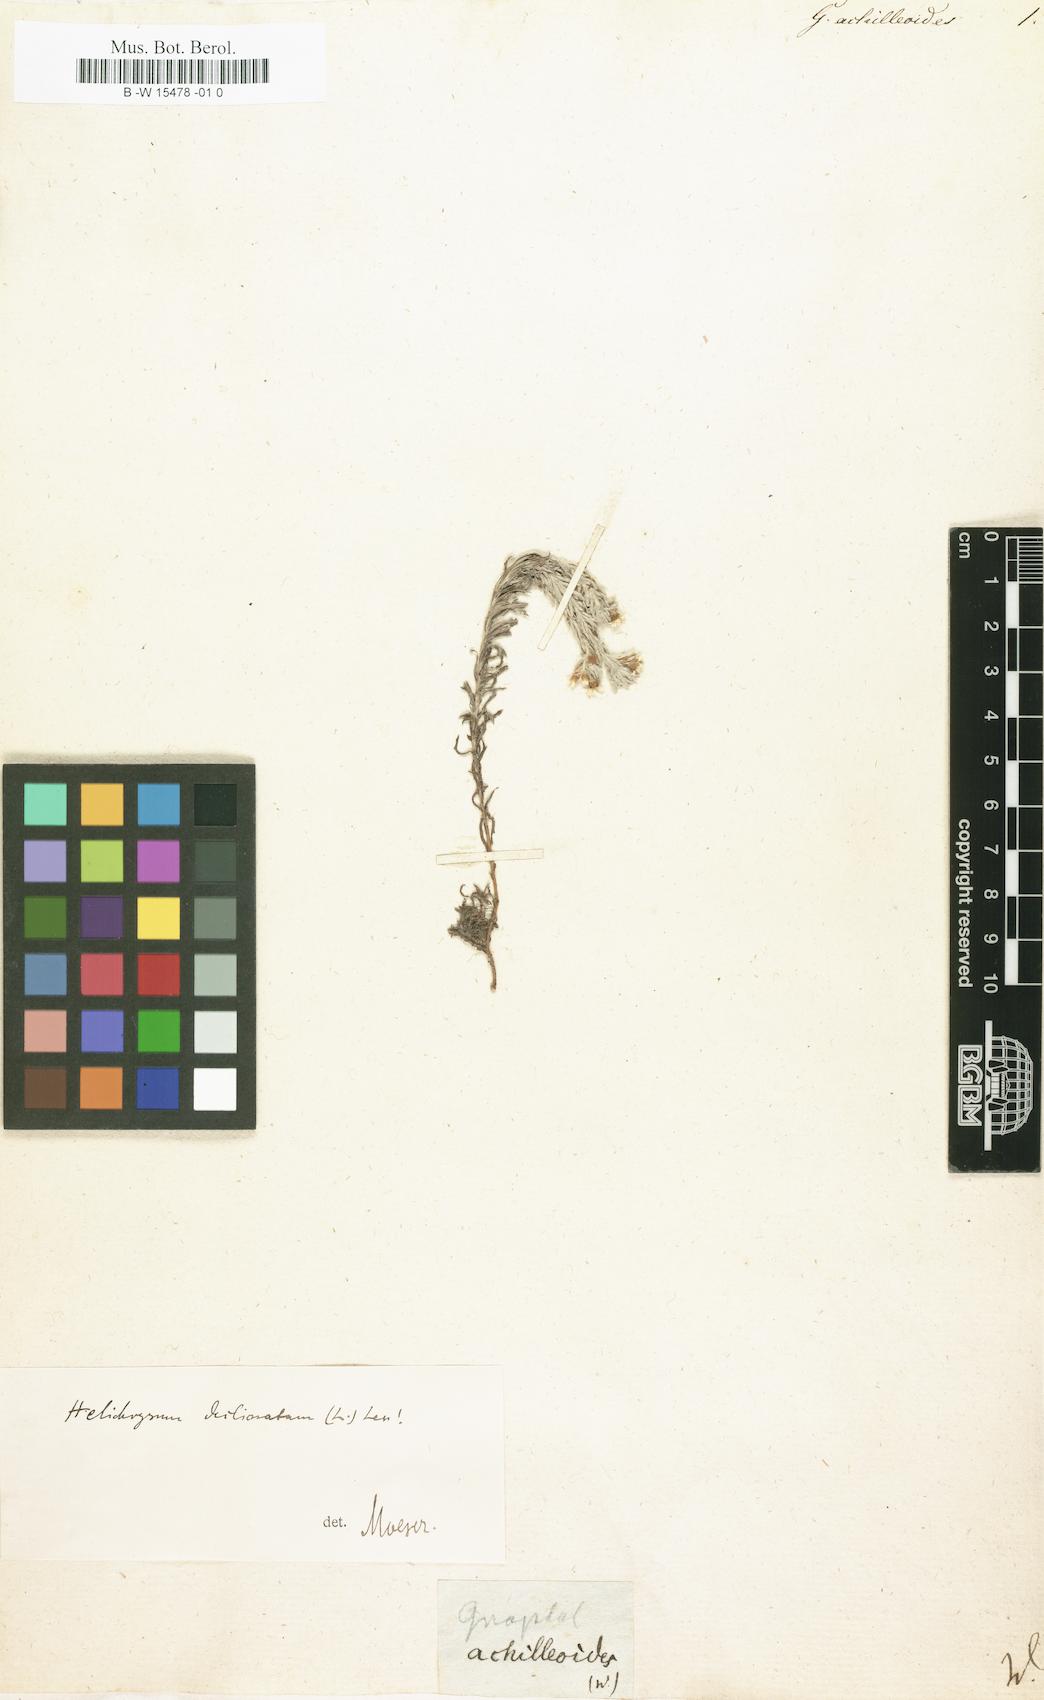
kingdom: Plantae
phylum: Tracheophyta
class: Magnoliopsida
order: Asterales
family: Asteraceae
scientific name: Asteraceae
